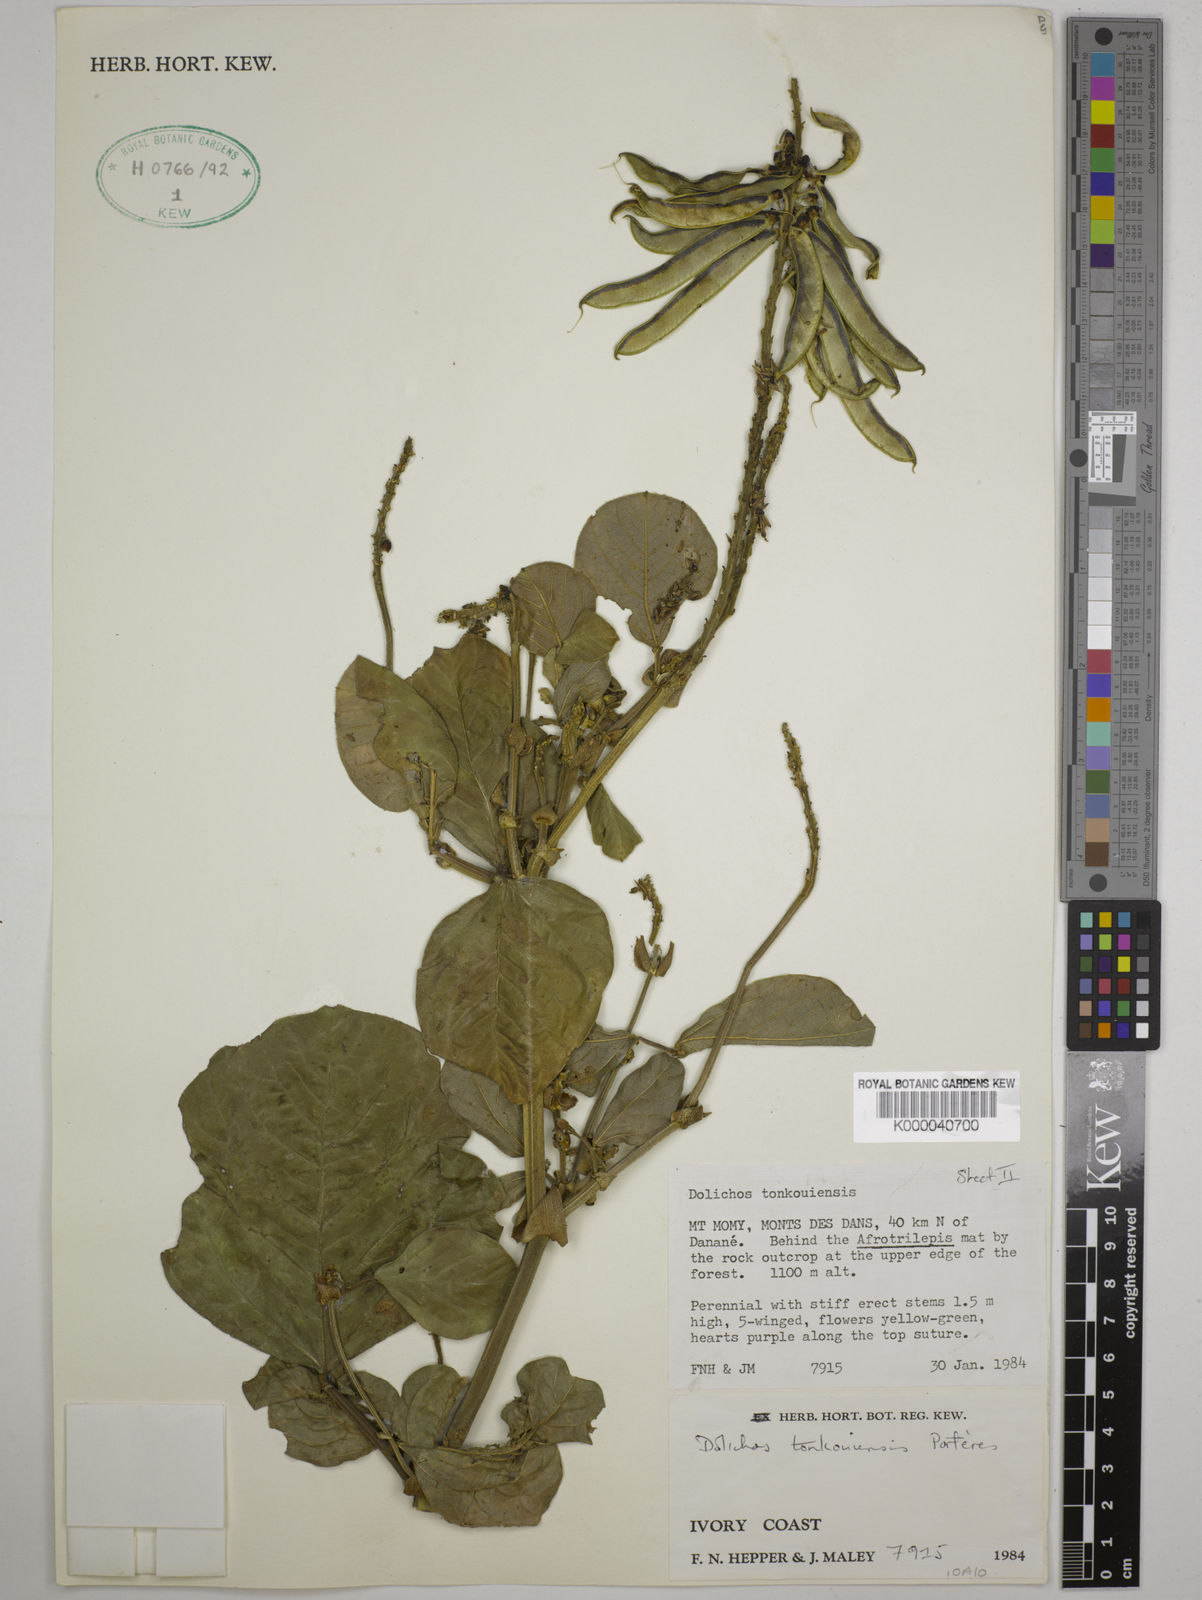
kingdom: Plantae
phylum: Tracheophyta
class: Magnoliopsida
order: Fabales
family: Fabaceae
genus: Dolichos
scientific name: Dolichos tonkouiensis
